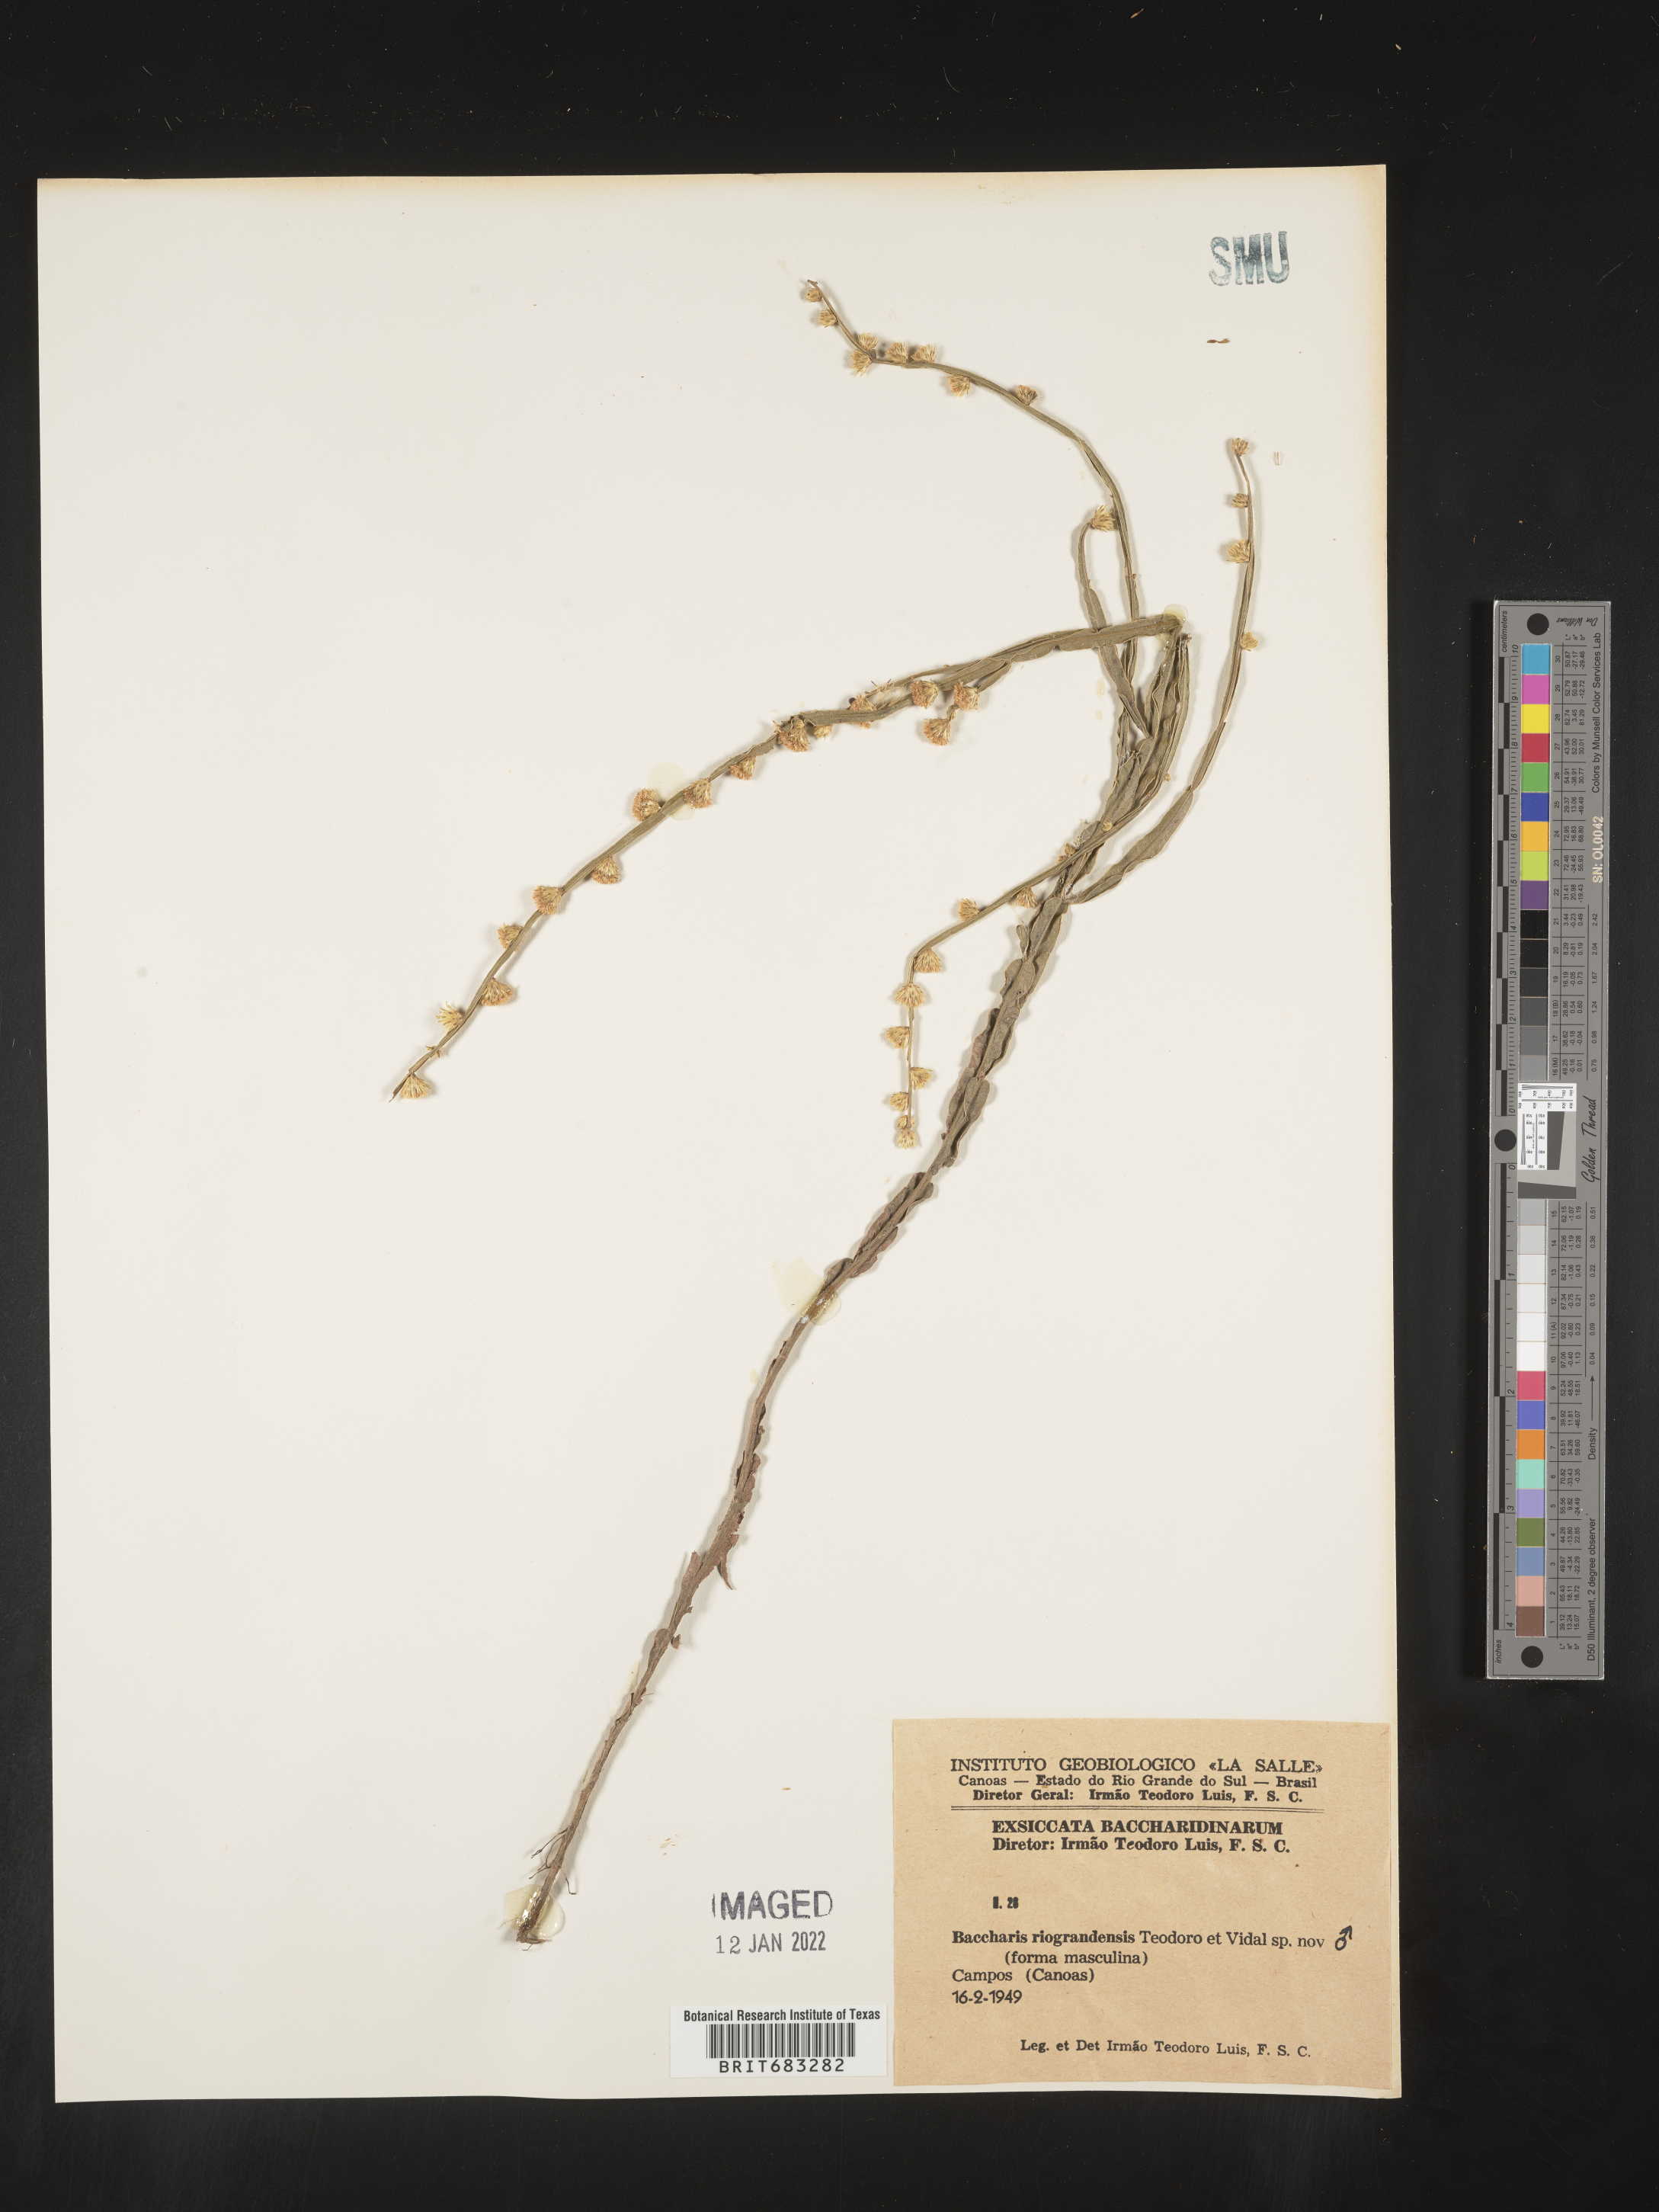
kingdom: Plantae
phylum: Tracheophyta
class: Magnoliopsida
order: Asterales
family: Asteraceae
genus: Baccharis
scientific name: Baccharis
